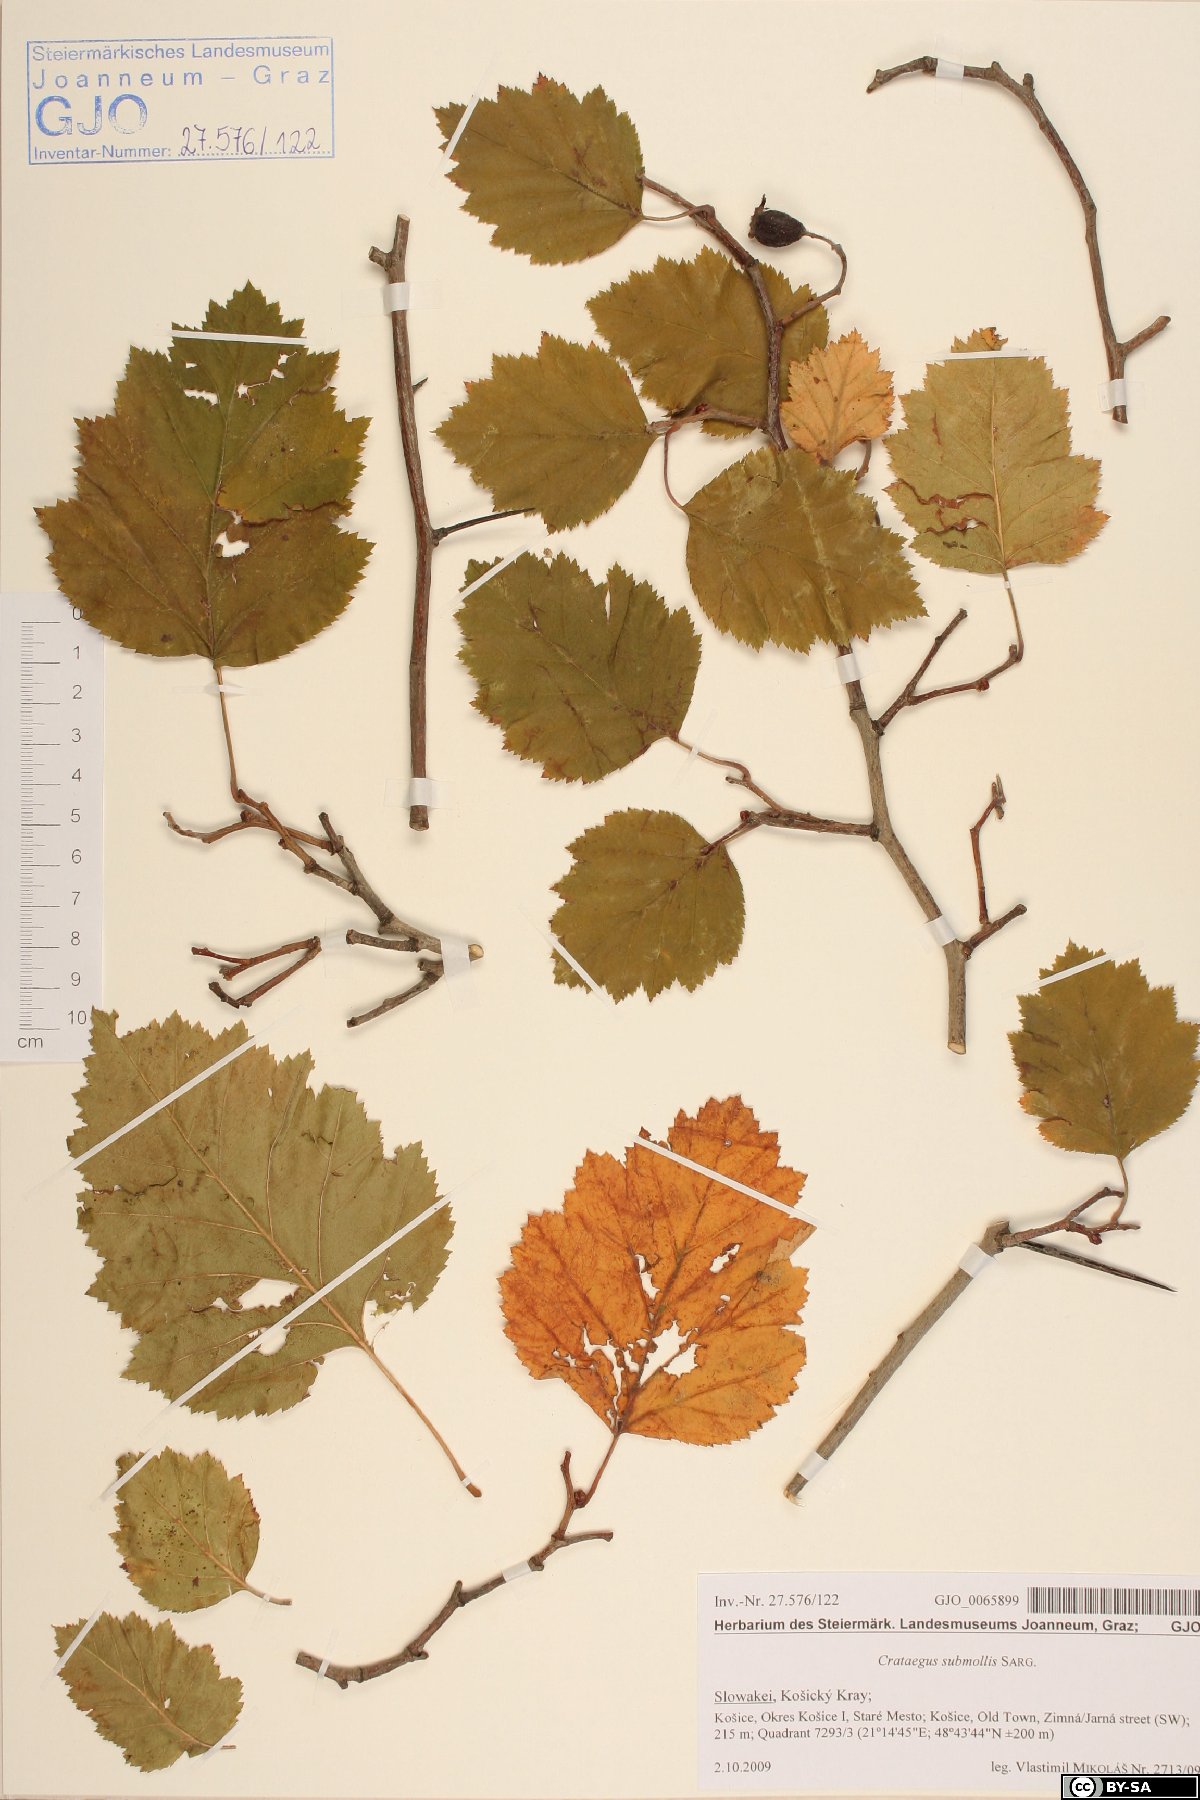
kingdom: Plantae
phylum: Tracheophyta
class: Magnoliopsida
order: Rosales
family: Rosaceae
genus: Crataegus
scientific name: Crataegus submollis
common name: Hairy cockspurthorn
